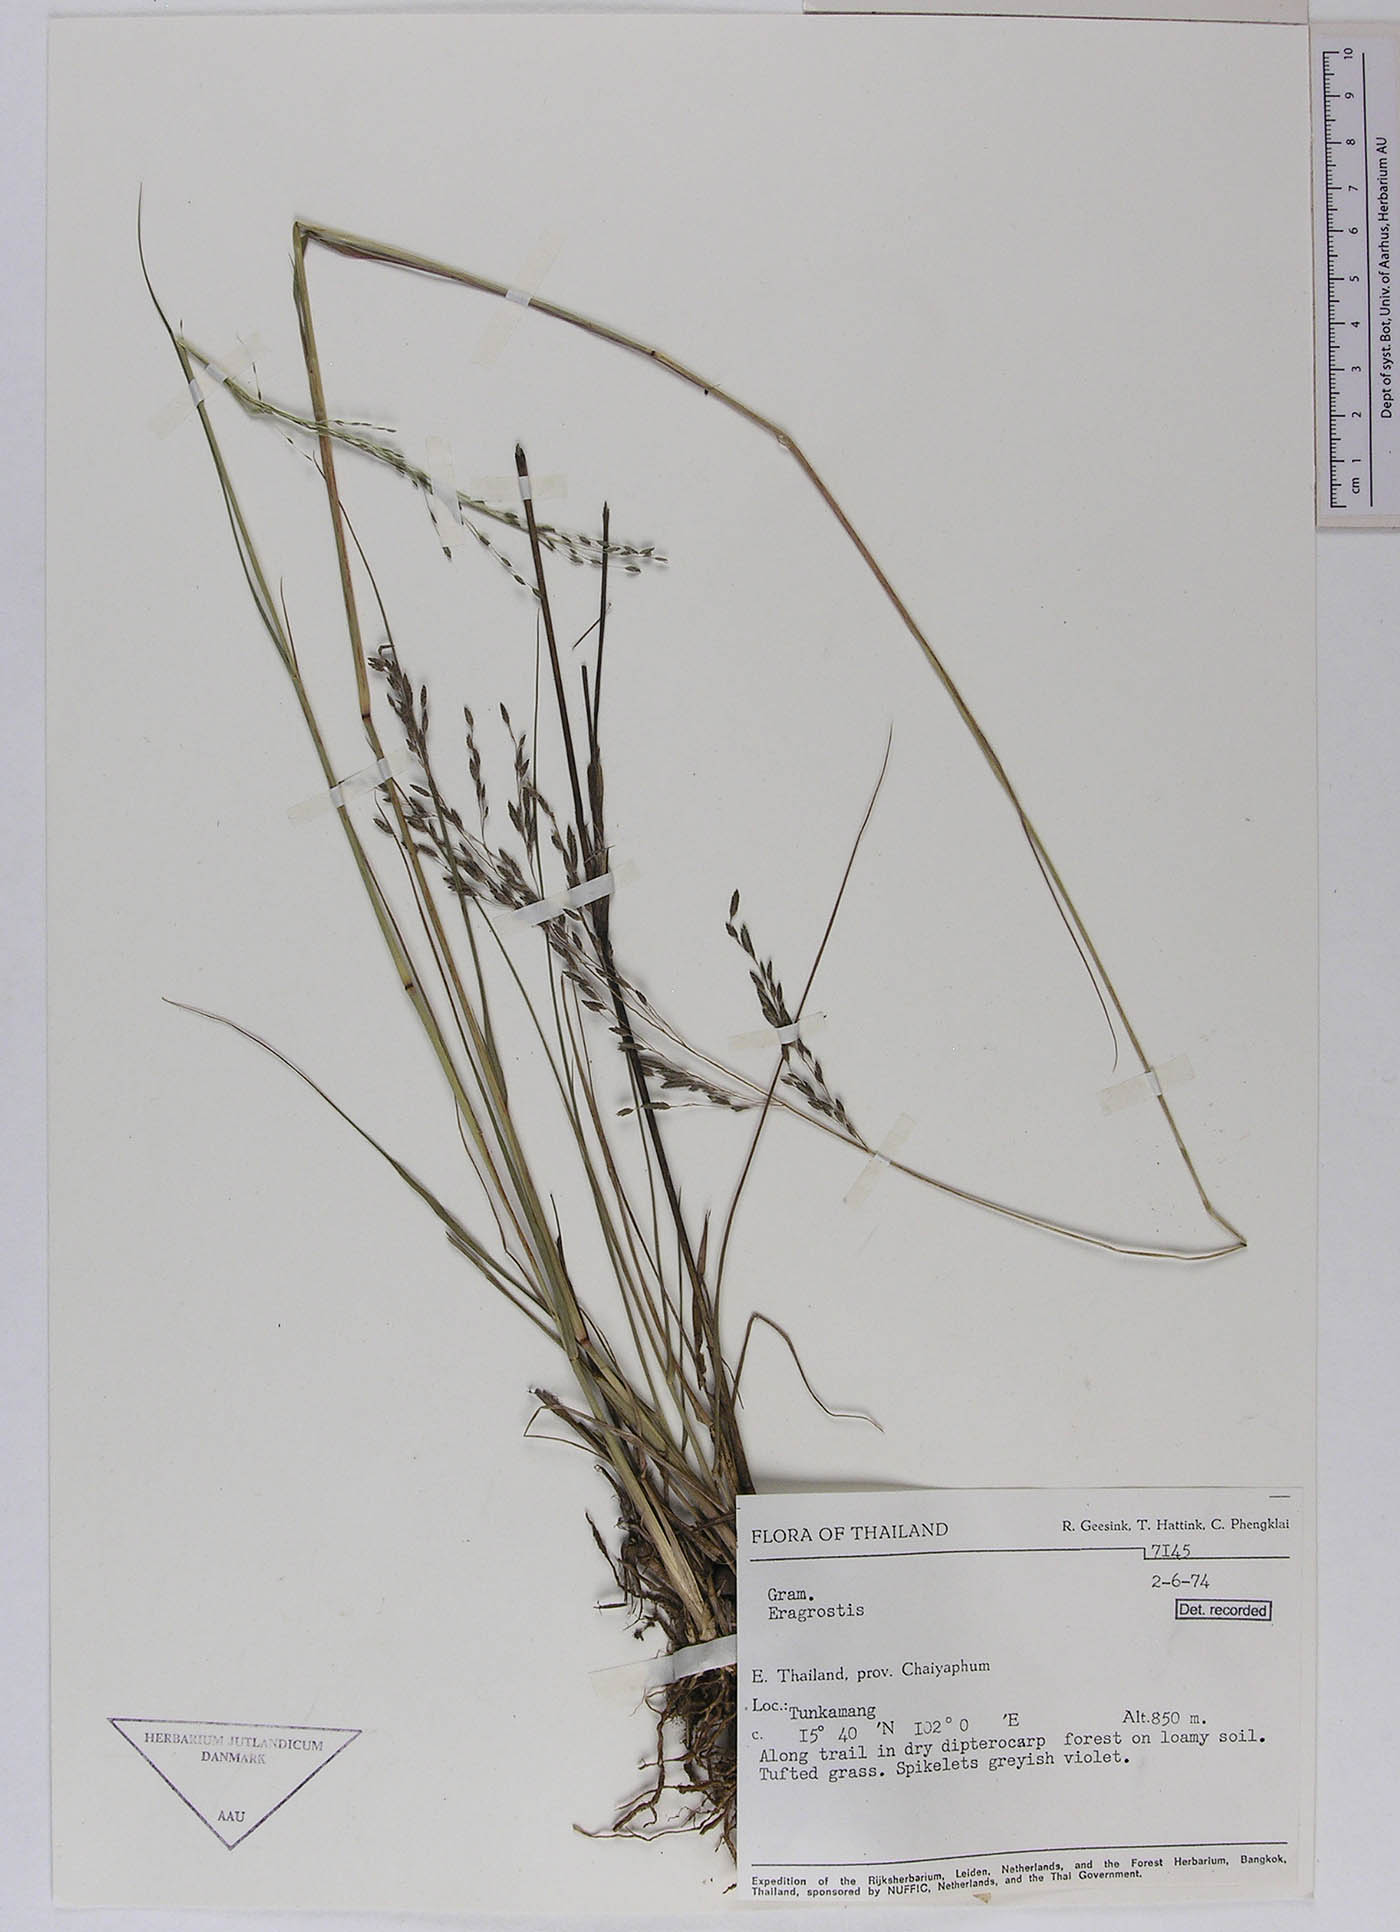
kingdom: Plantae
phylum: Tracheophyta
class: Liliopsida
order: Poales
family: Poaceae
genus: Eragrostis
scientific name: Eragrostis atrovirens
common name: Thalia lovegrass
